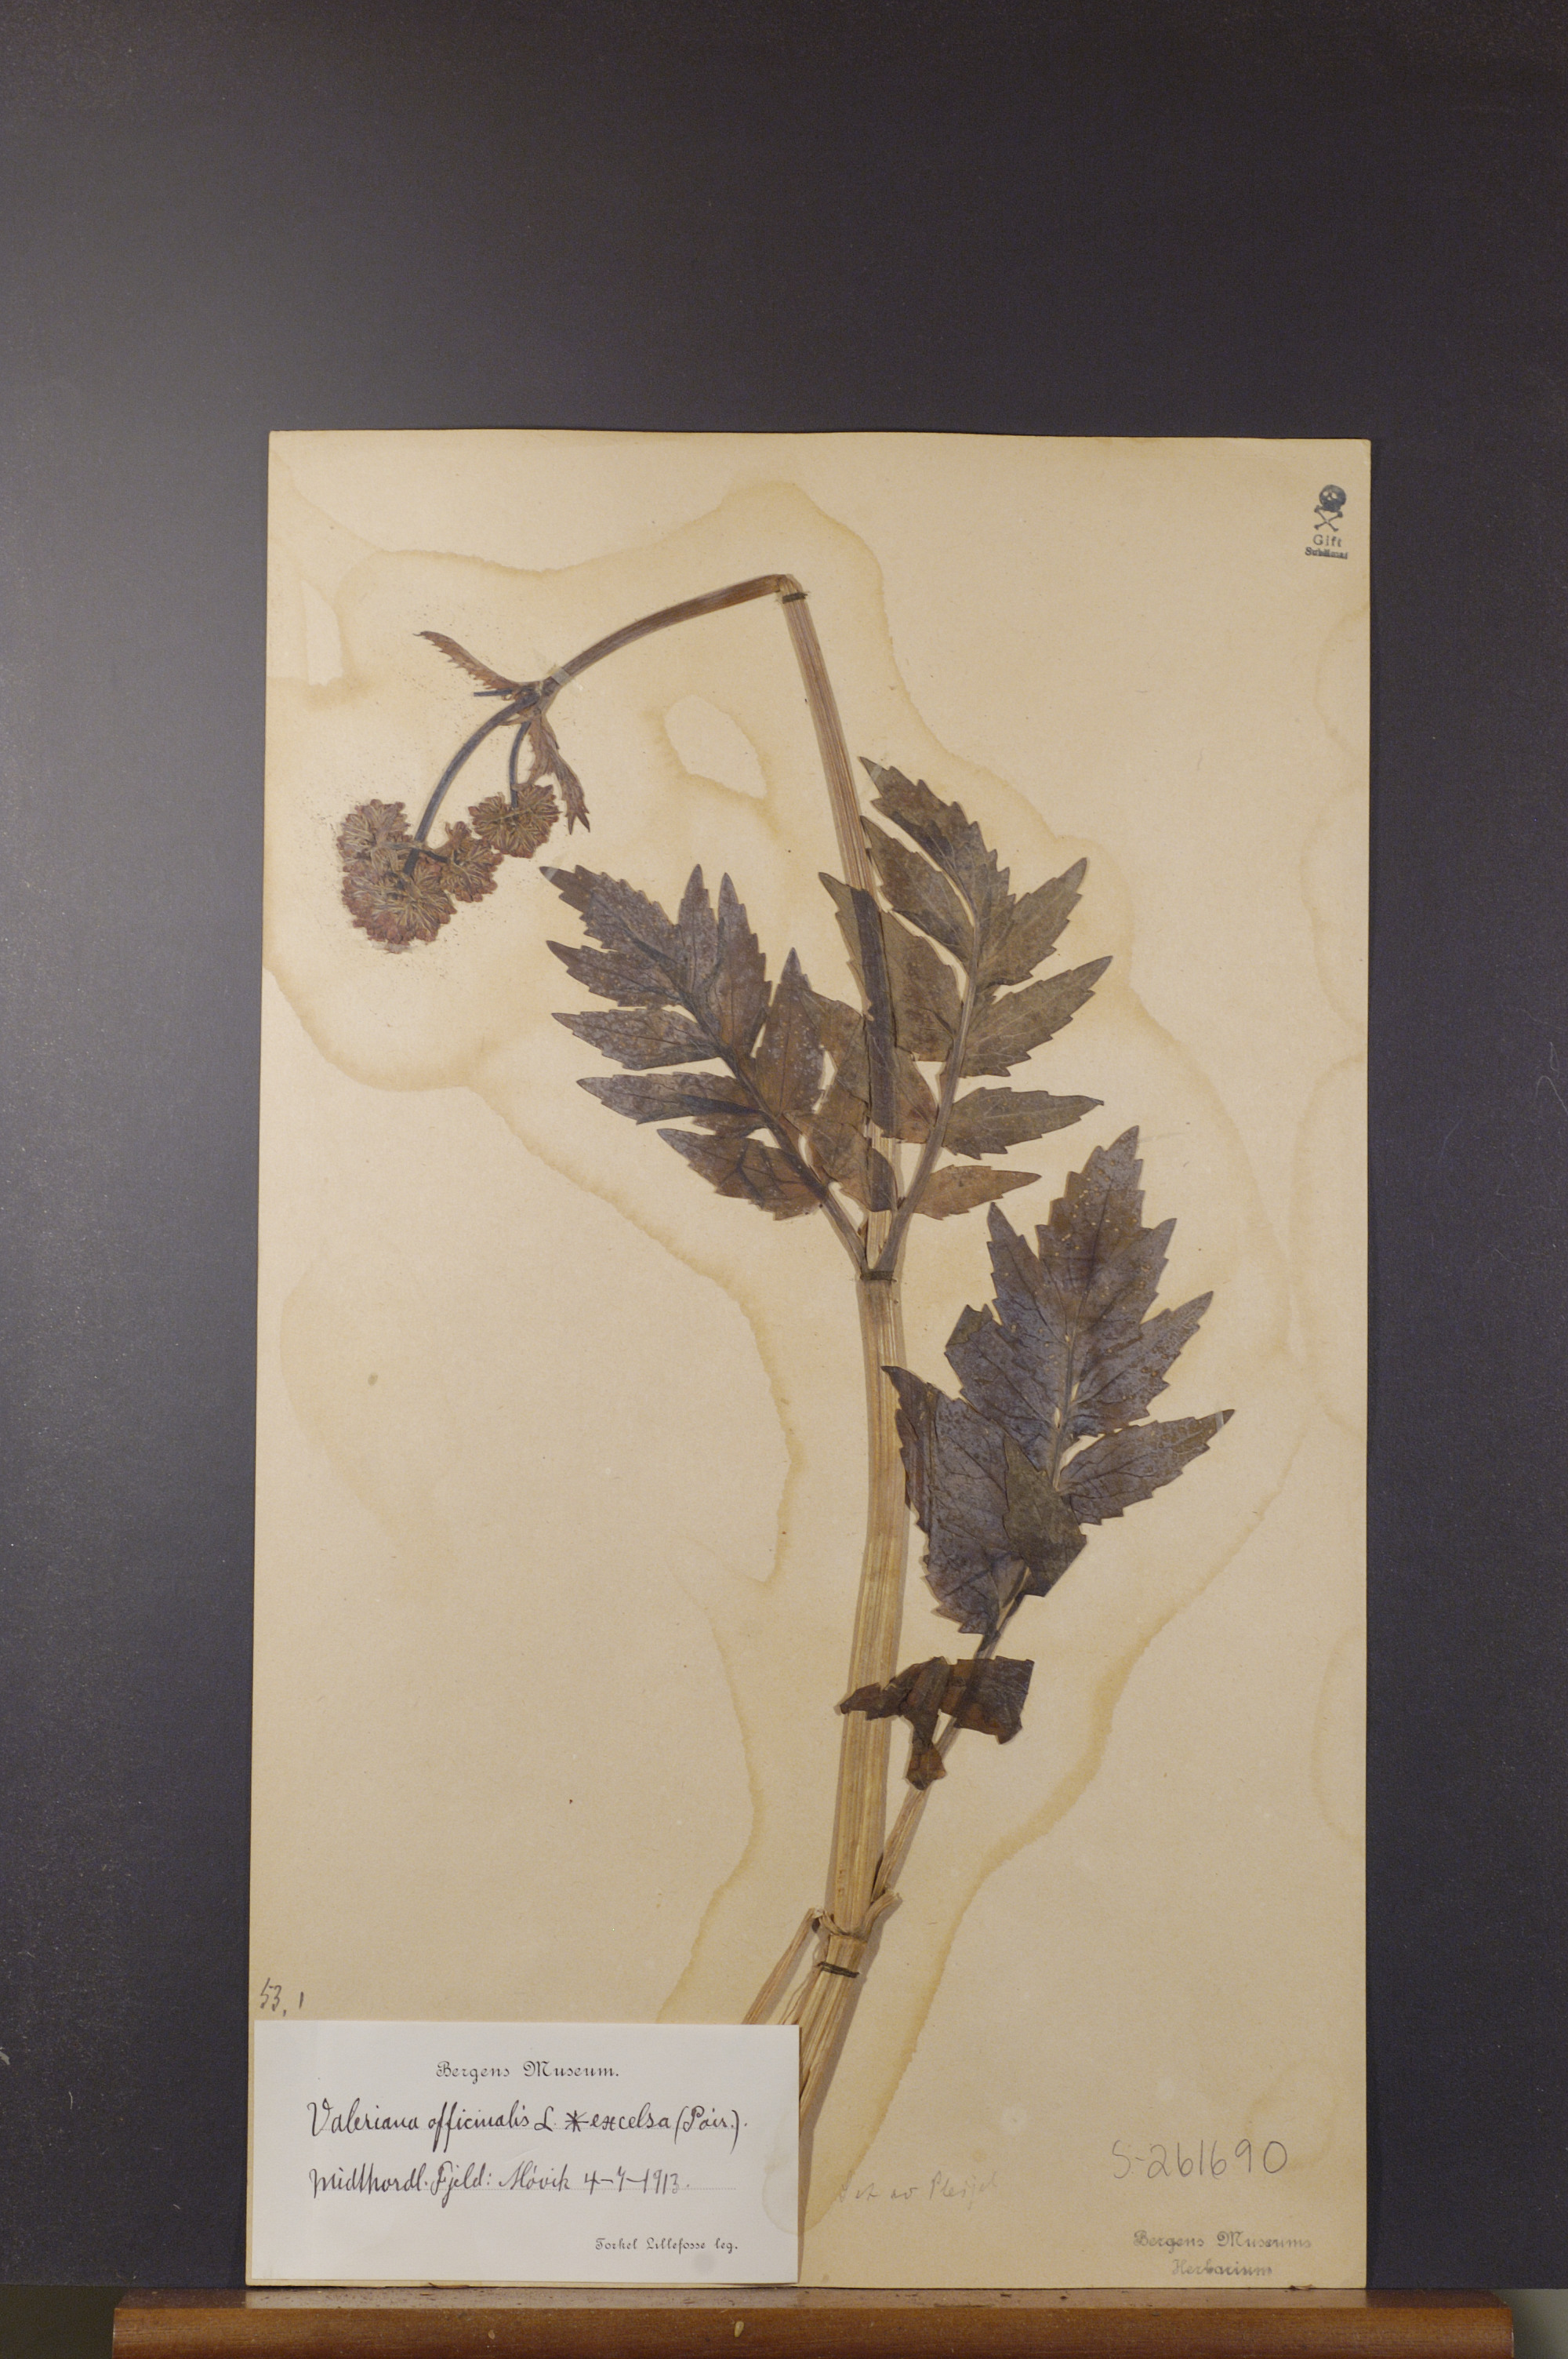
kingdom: Plantae
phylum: Tracheophyta
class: Magnoliopsida
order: Dipsacales
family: Caprifoliaceae
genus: Valeriana
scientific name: Valeriana sambucifolia
